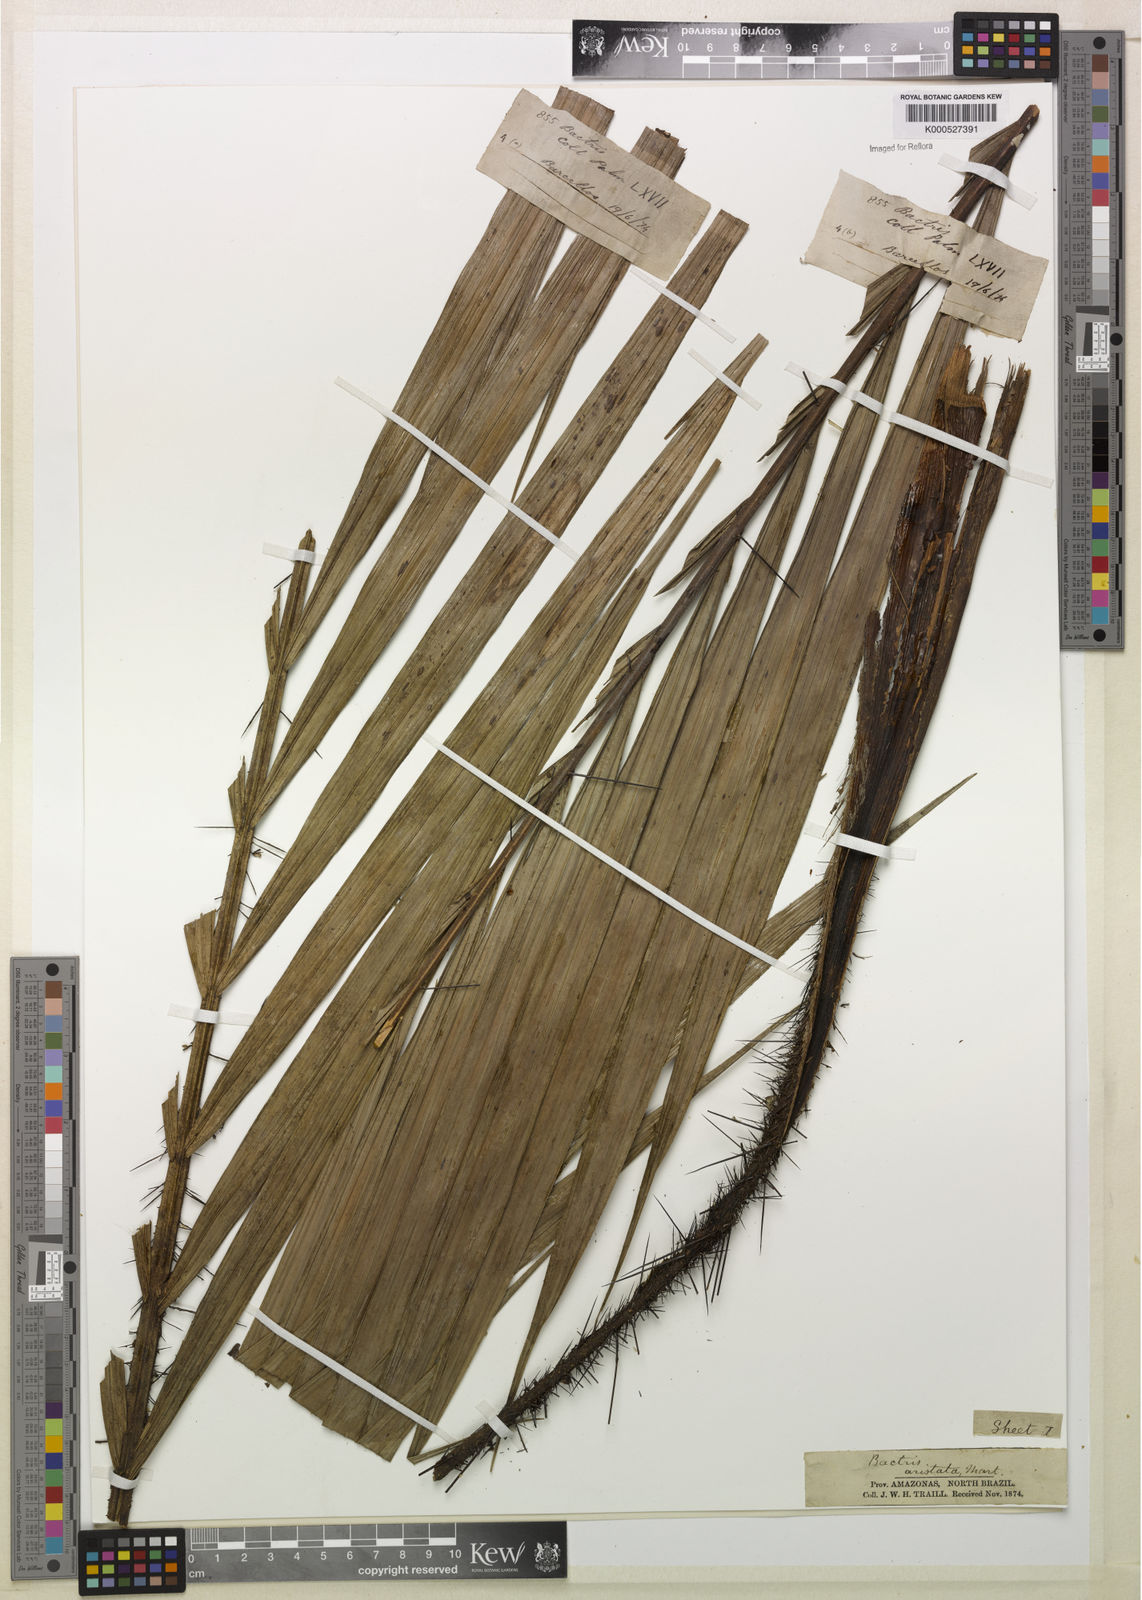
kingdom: Plantae
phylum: Tracheophyta
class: Liliopsida
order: Arecales
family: Arecaceae
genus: Bactris
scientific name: Bactris fissifrons
